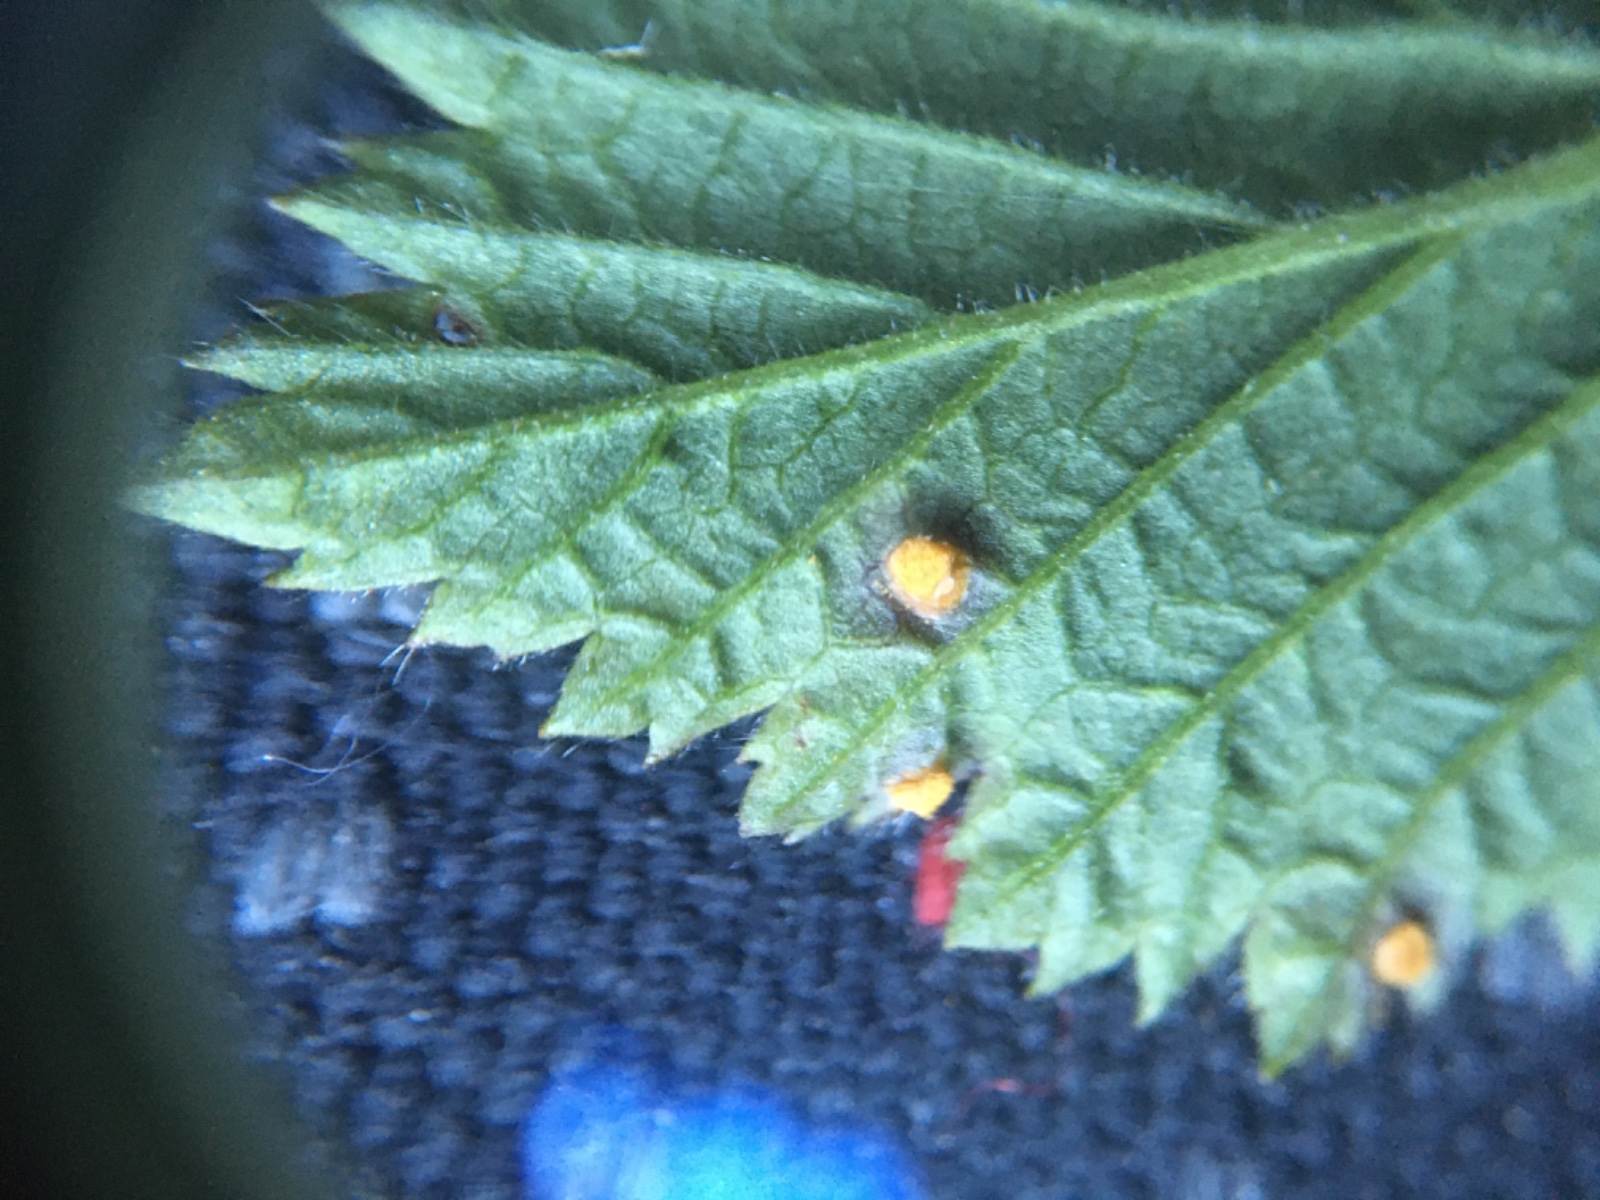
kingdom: Fungi
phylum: Basidiomycota
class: Pucciniomycetes
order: Pucciniales
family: Phragmidiaceae
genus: Phragmidium
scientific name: Phragmidium
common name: flercellerust
